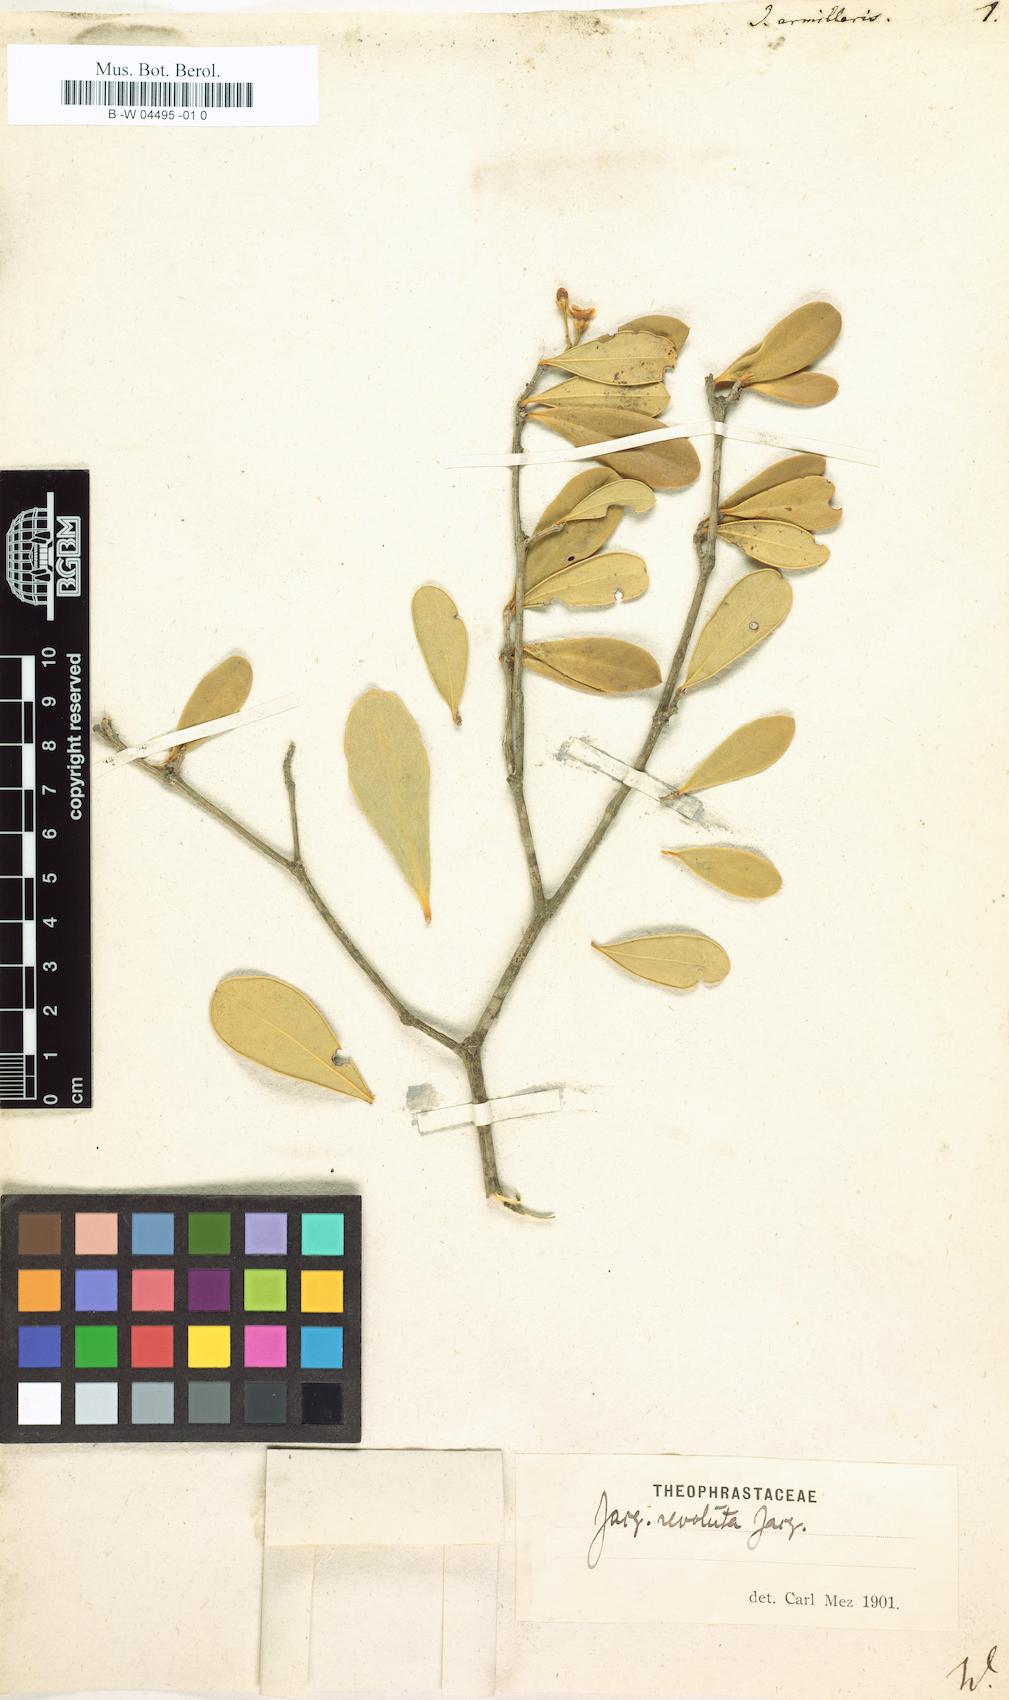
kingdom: Plantae
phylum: Tracheophyta
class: Magnoliopsida
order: Ericales
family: Primulaceae
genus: Jacquinia
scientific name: Jacquinia armillaris
